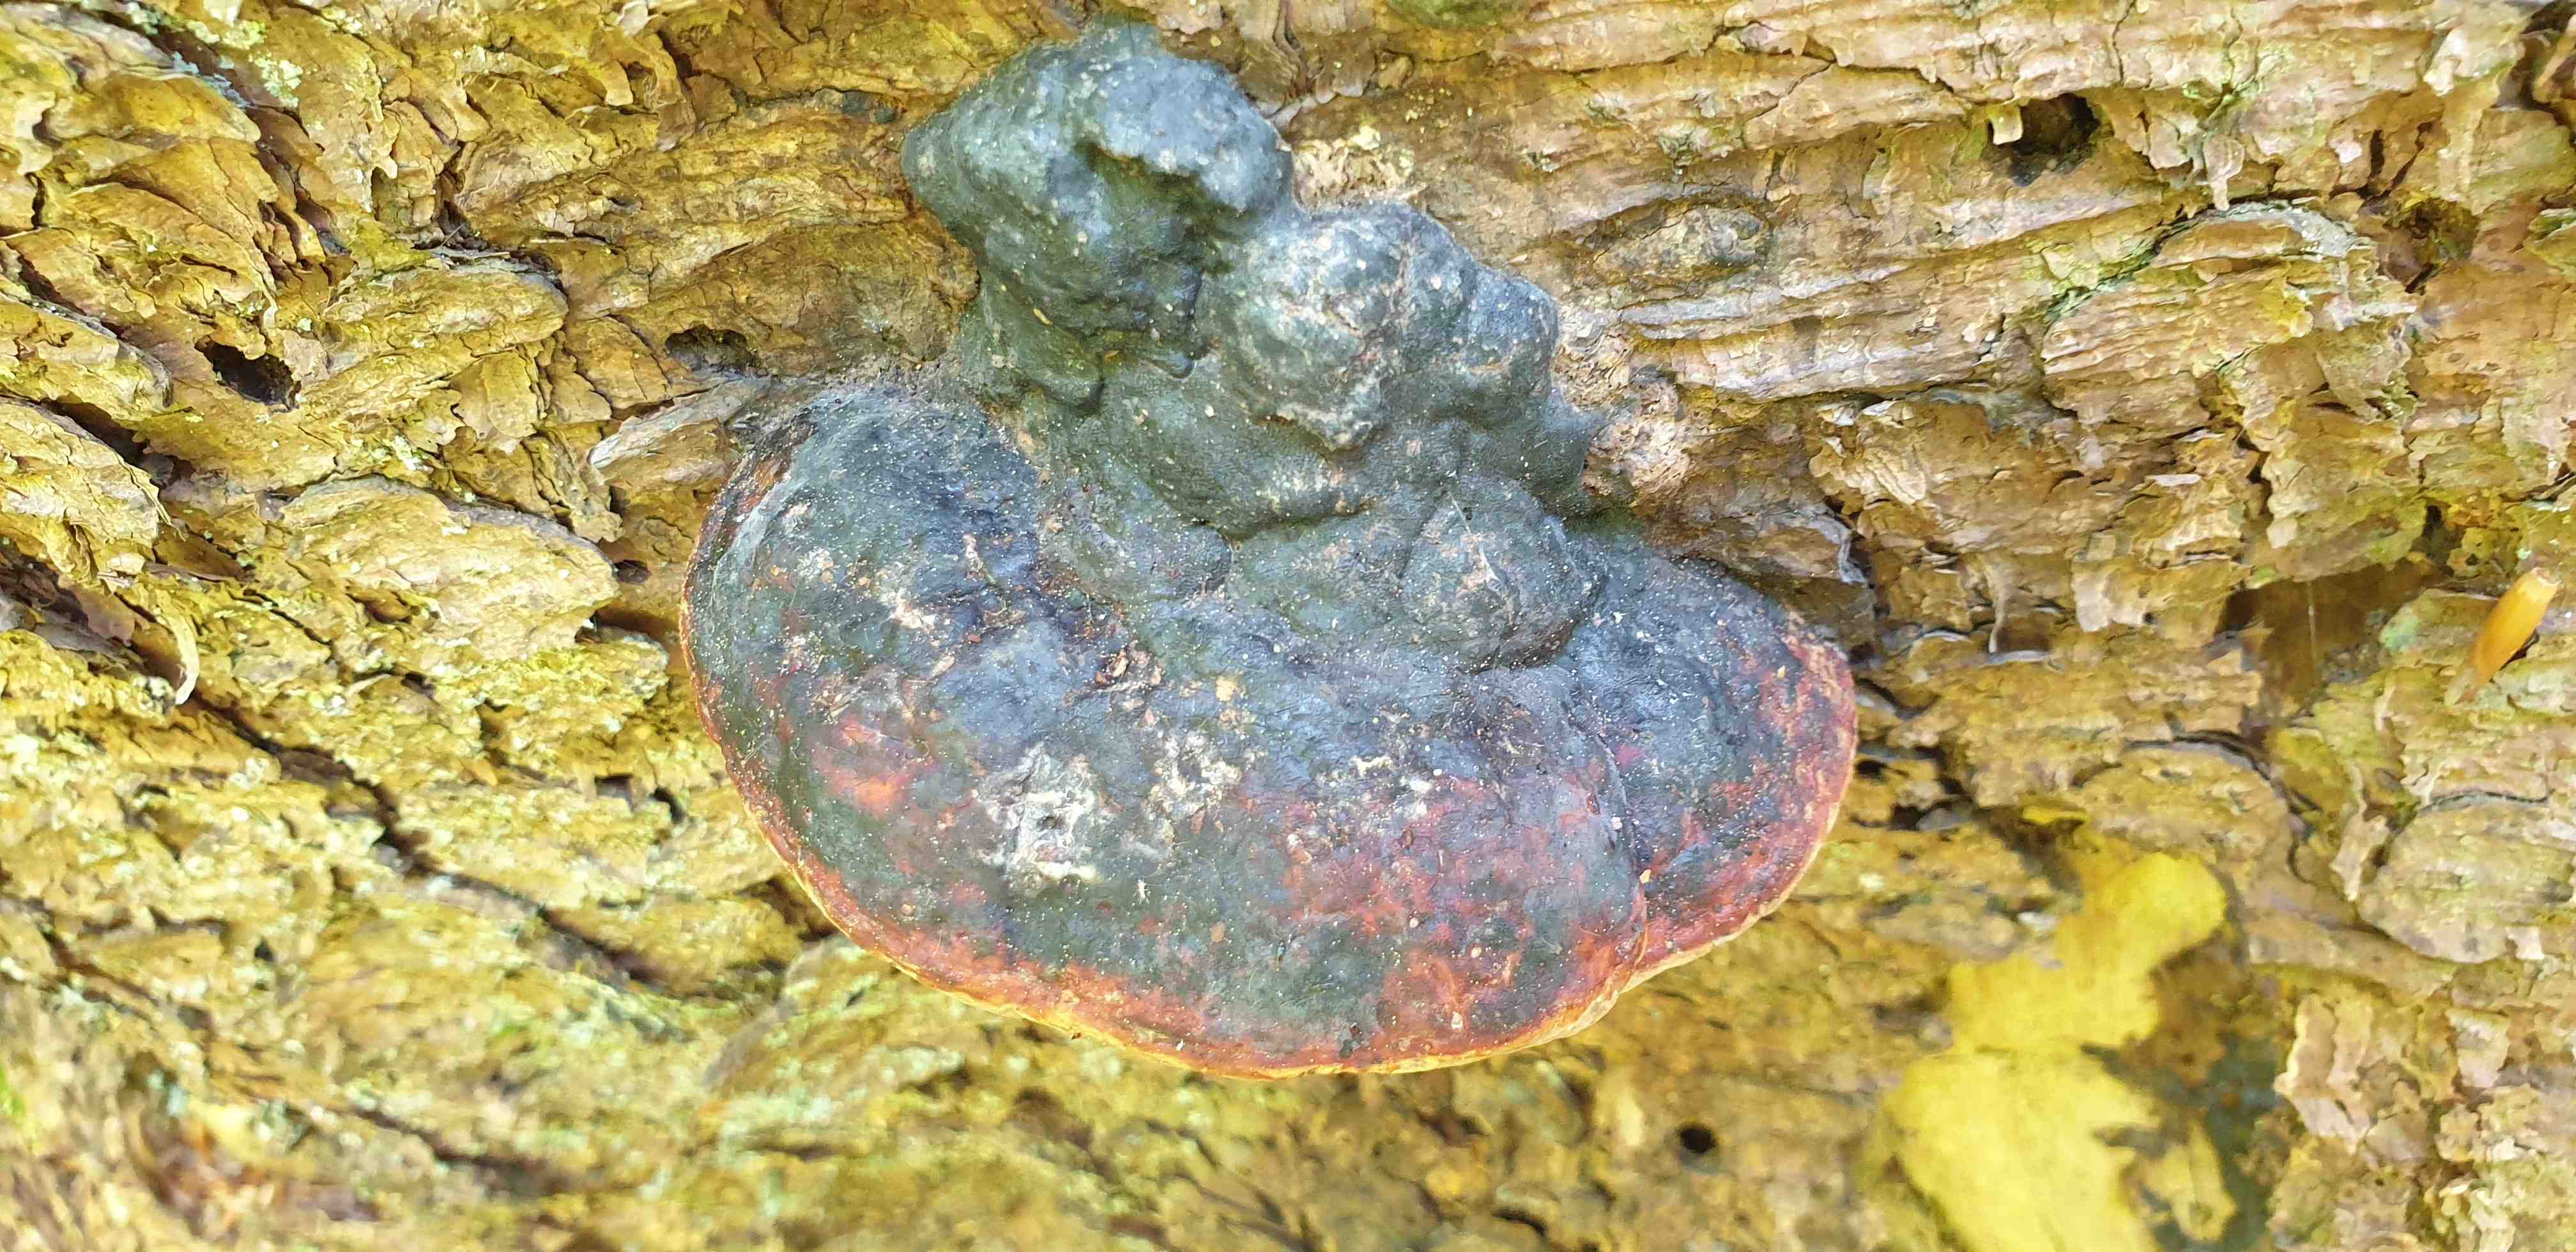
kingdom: Fungi
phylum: Basidiomycota
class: Agaricomycetes
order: Polyporales
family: Fomitopsidaceae
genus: Fomitopsis
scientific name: Fomitopsis pinicola
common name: randbæltet hovporesvamp
